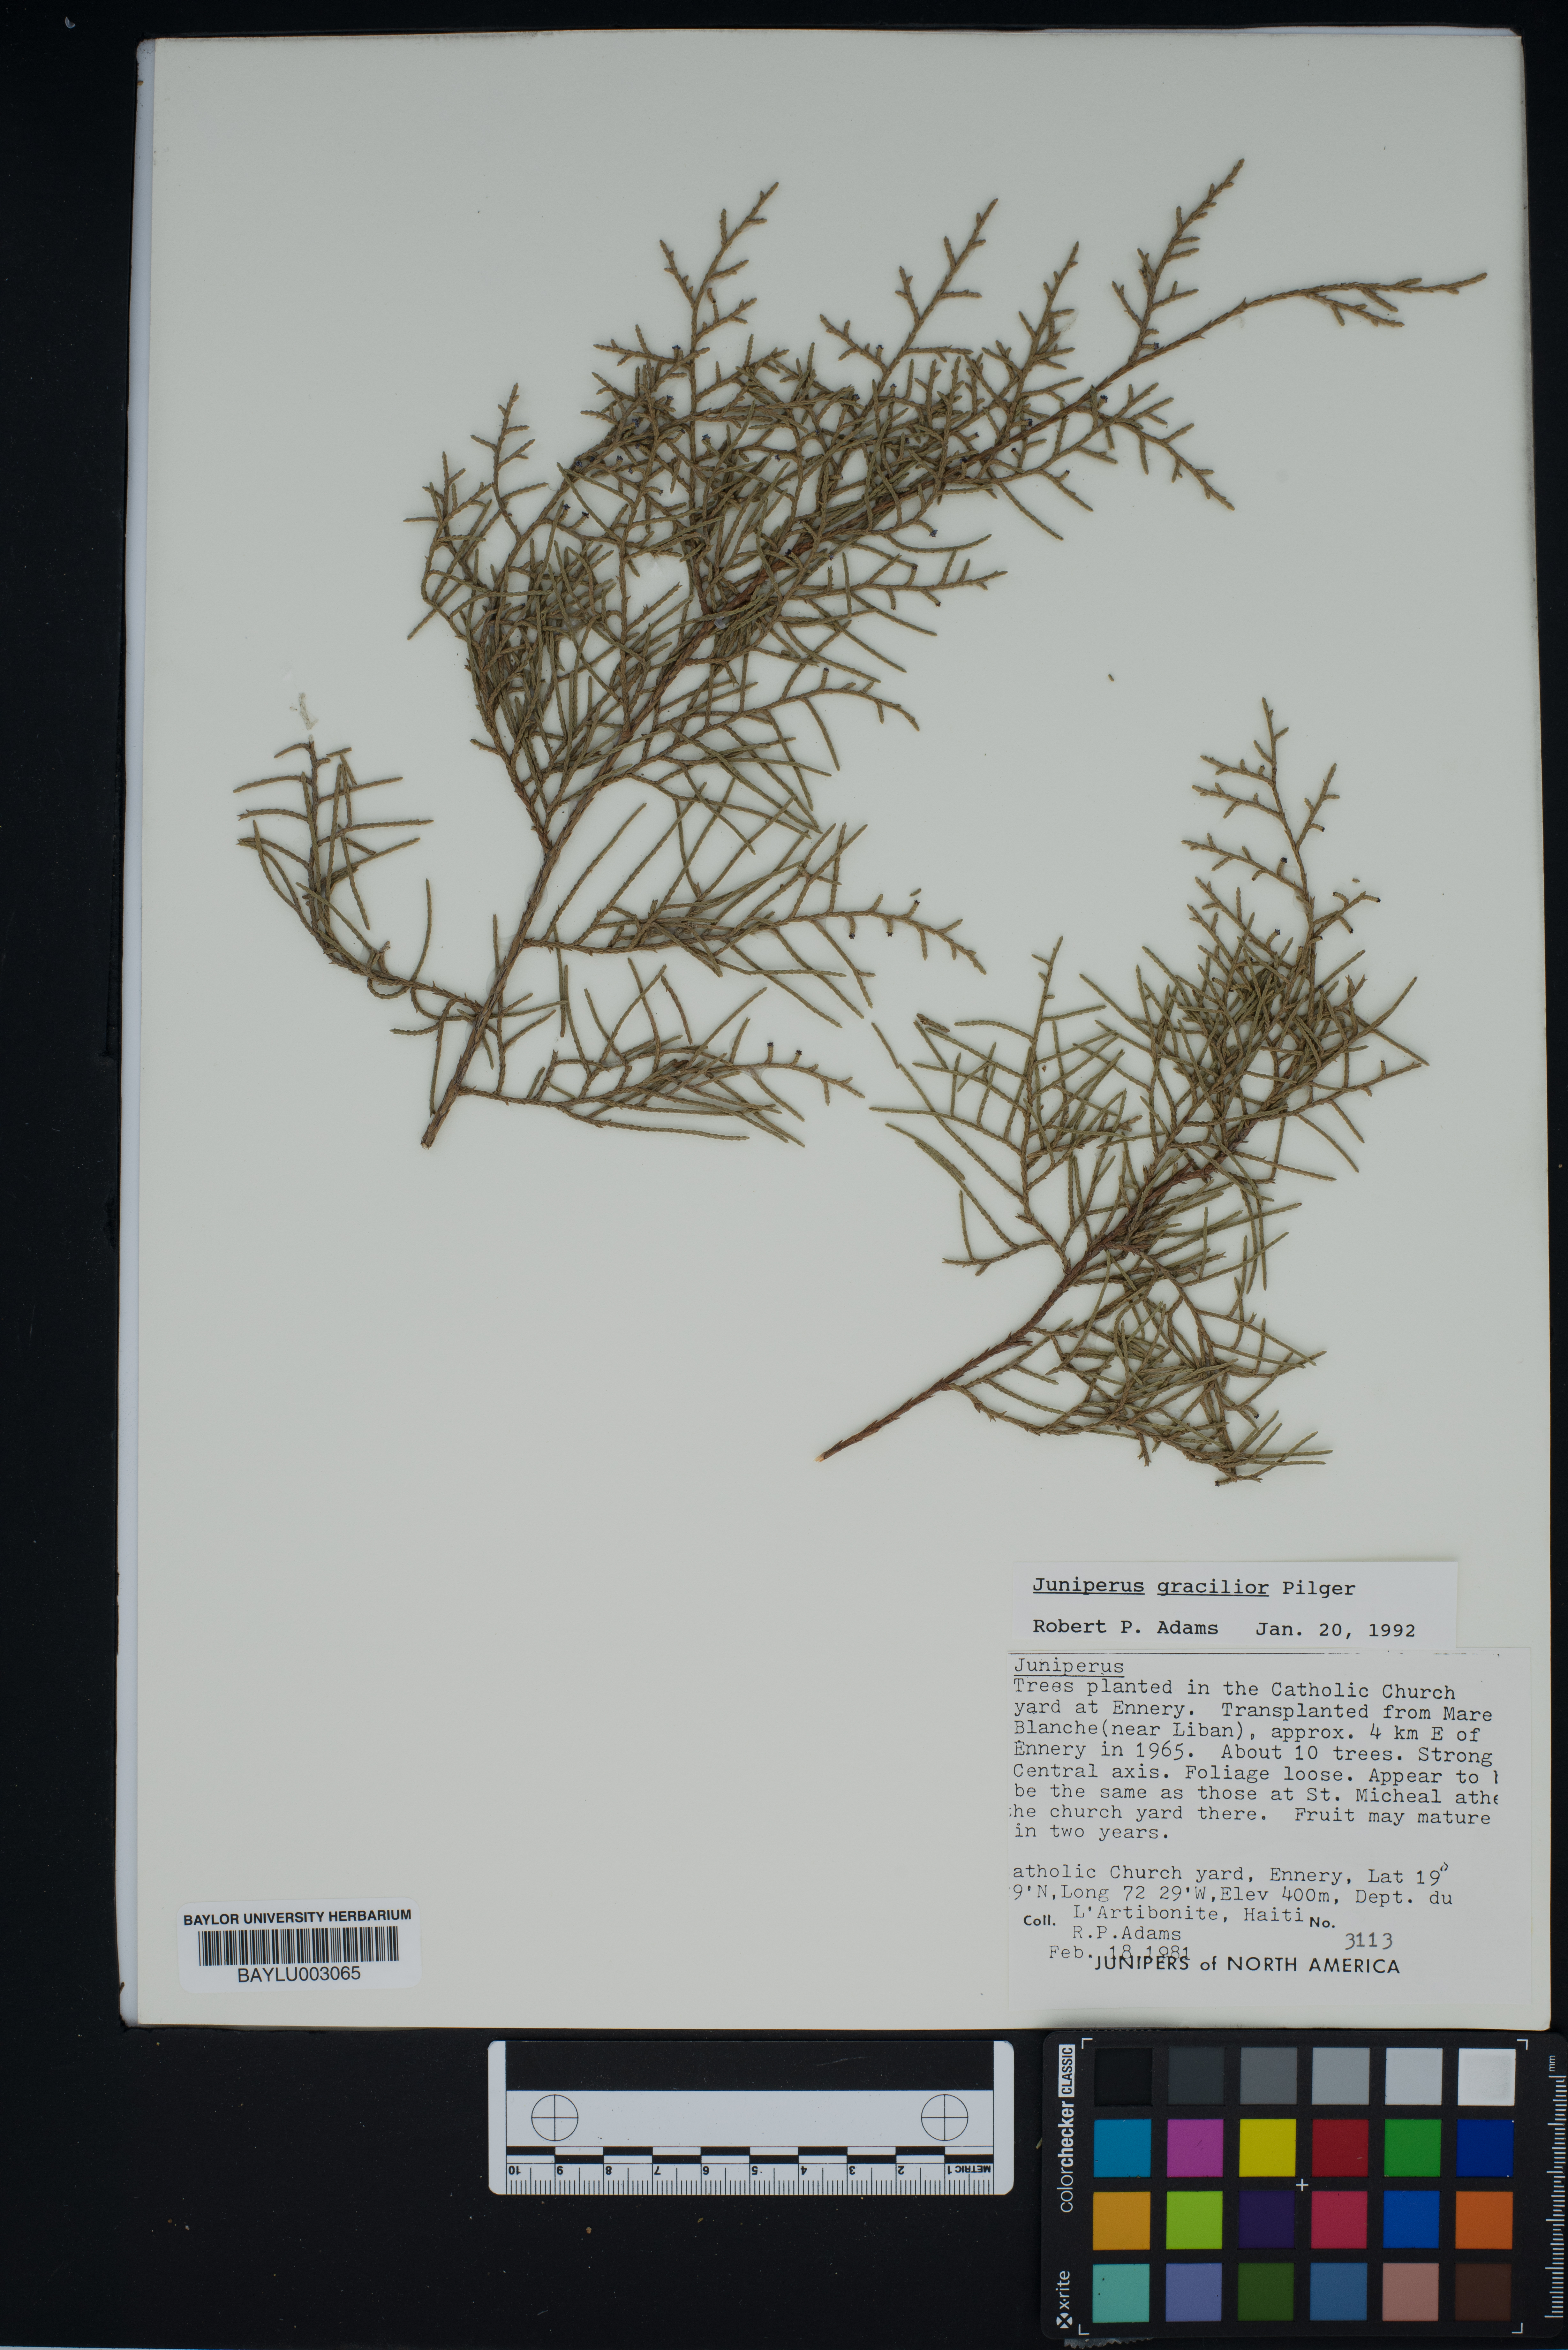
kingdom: Plantae
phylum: Tracheophyta
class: Pinopsida
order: Pinales
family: Cupressaceae
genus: Juniperus
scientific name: Juniperus gracilior
